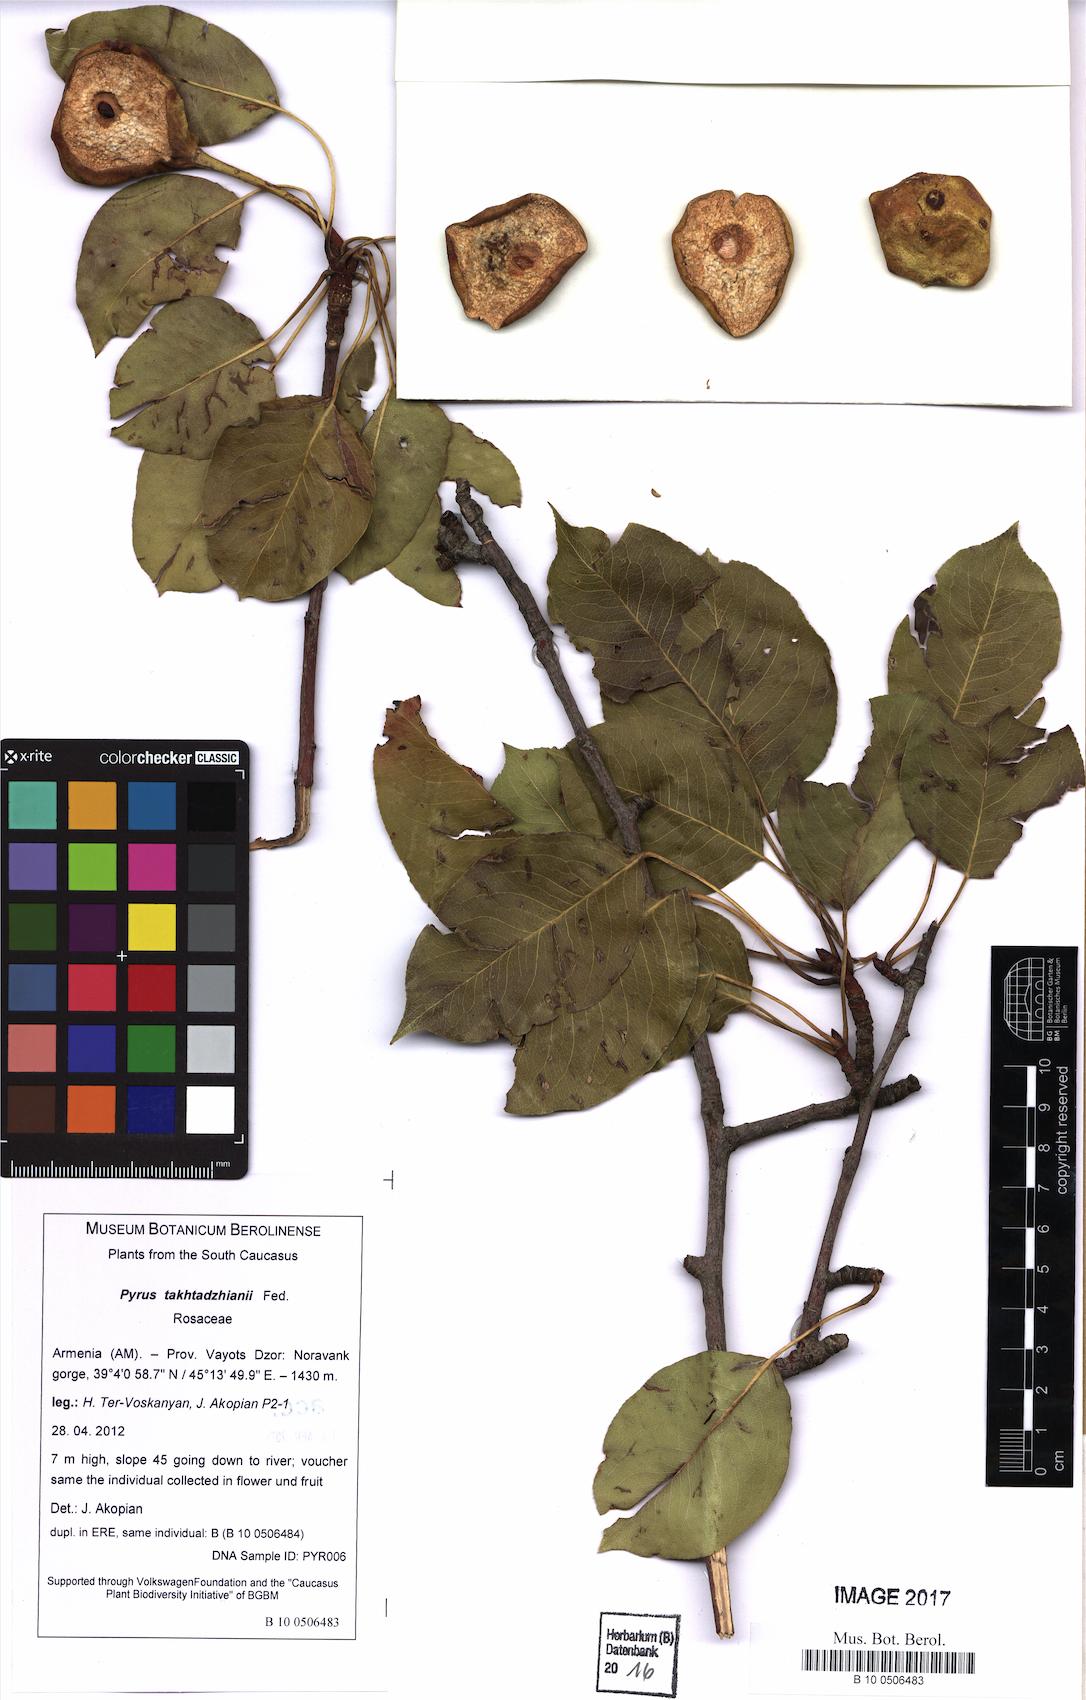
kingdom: Plantae
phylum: Tracheophyta
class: Magnoliopsida
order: Rosales
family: Rosaceae
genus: Pyrus
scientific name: Pyrus takhtadzhianii
